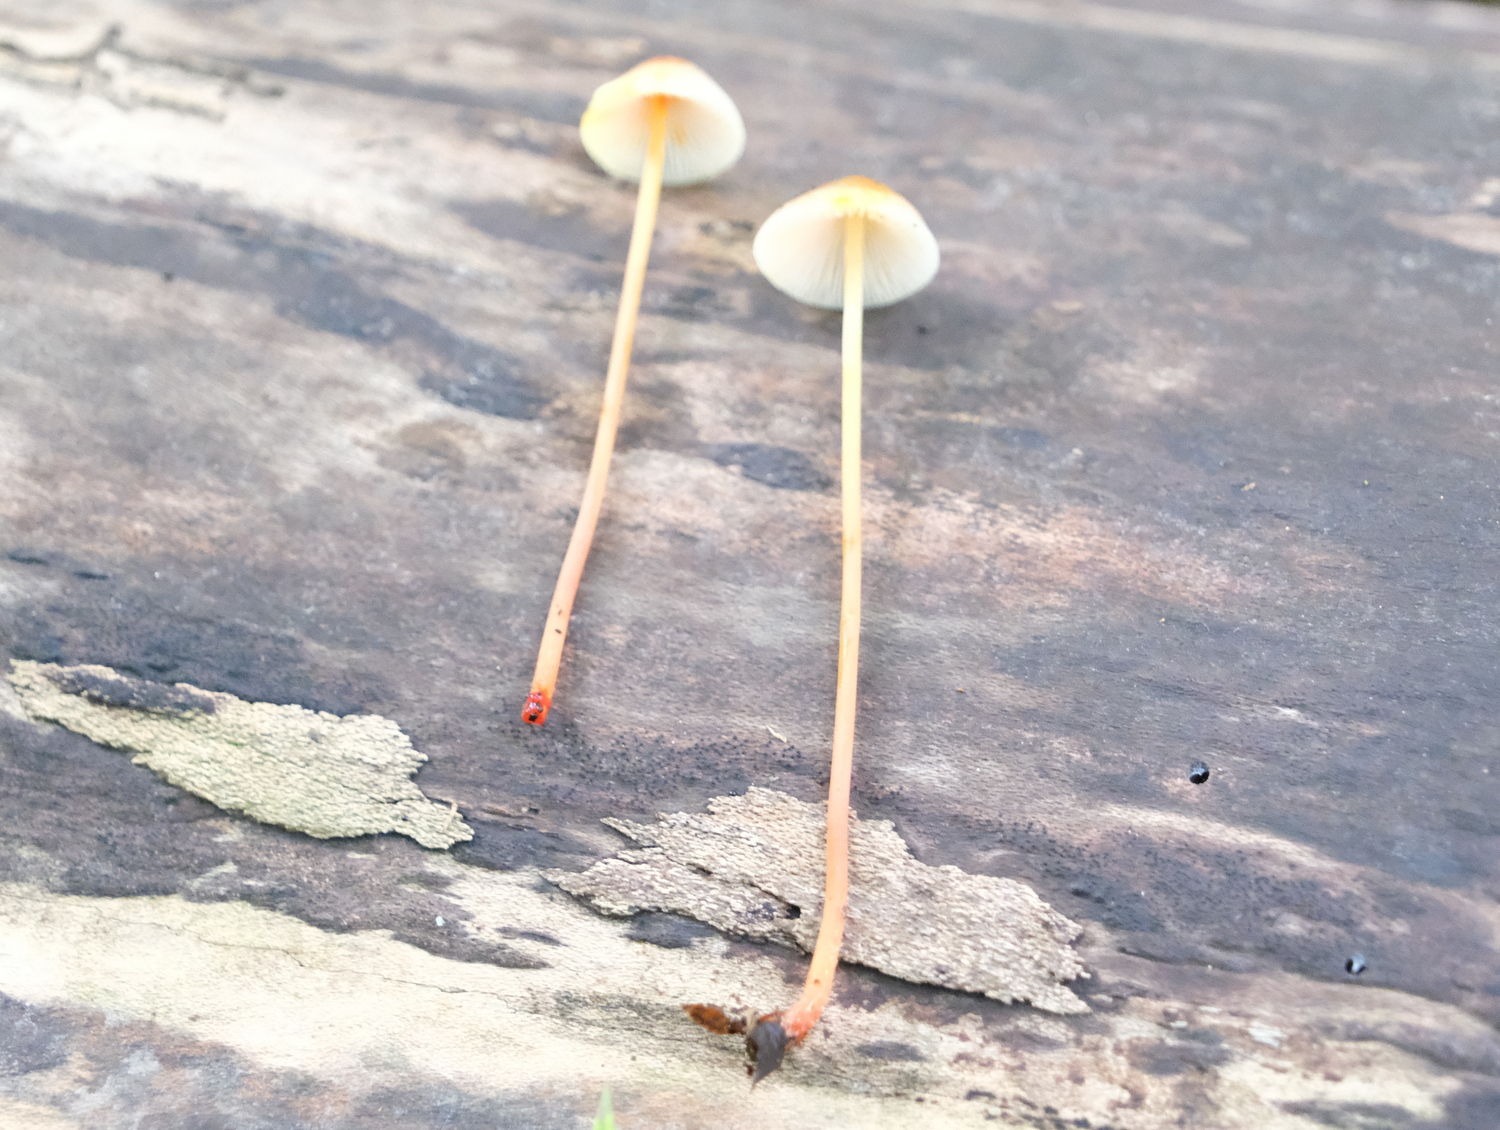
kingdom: Fungi
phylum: Basidiomycota
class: Agaricomycetes
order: Agaricales
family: Mycenaceae
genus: Mycena
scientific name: Mycena crocata
